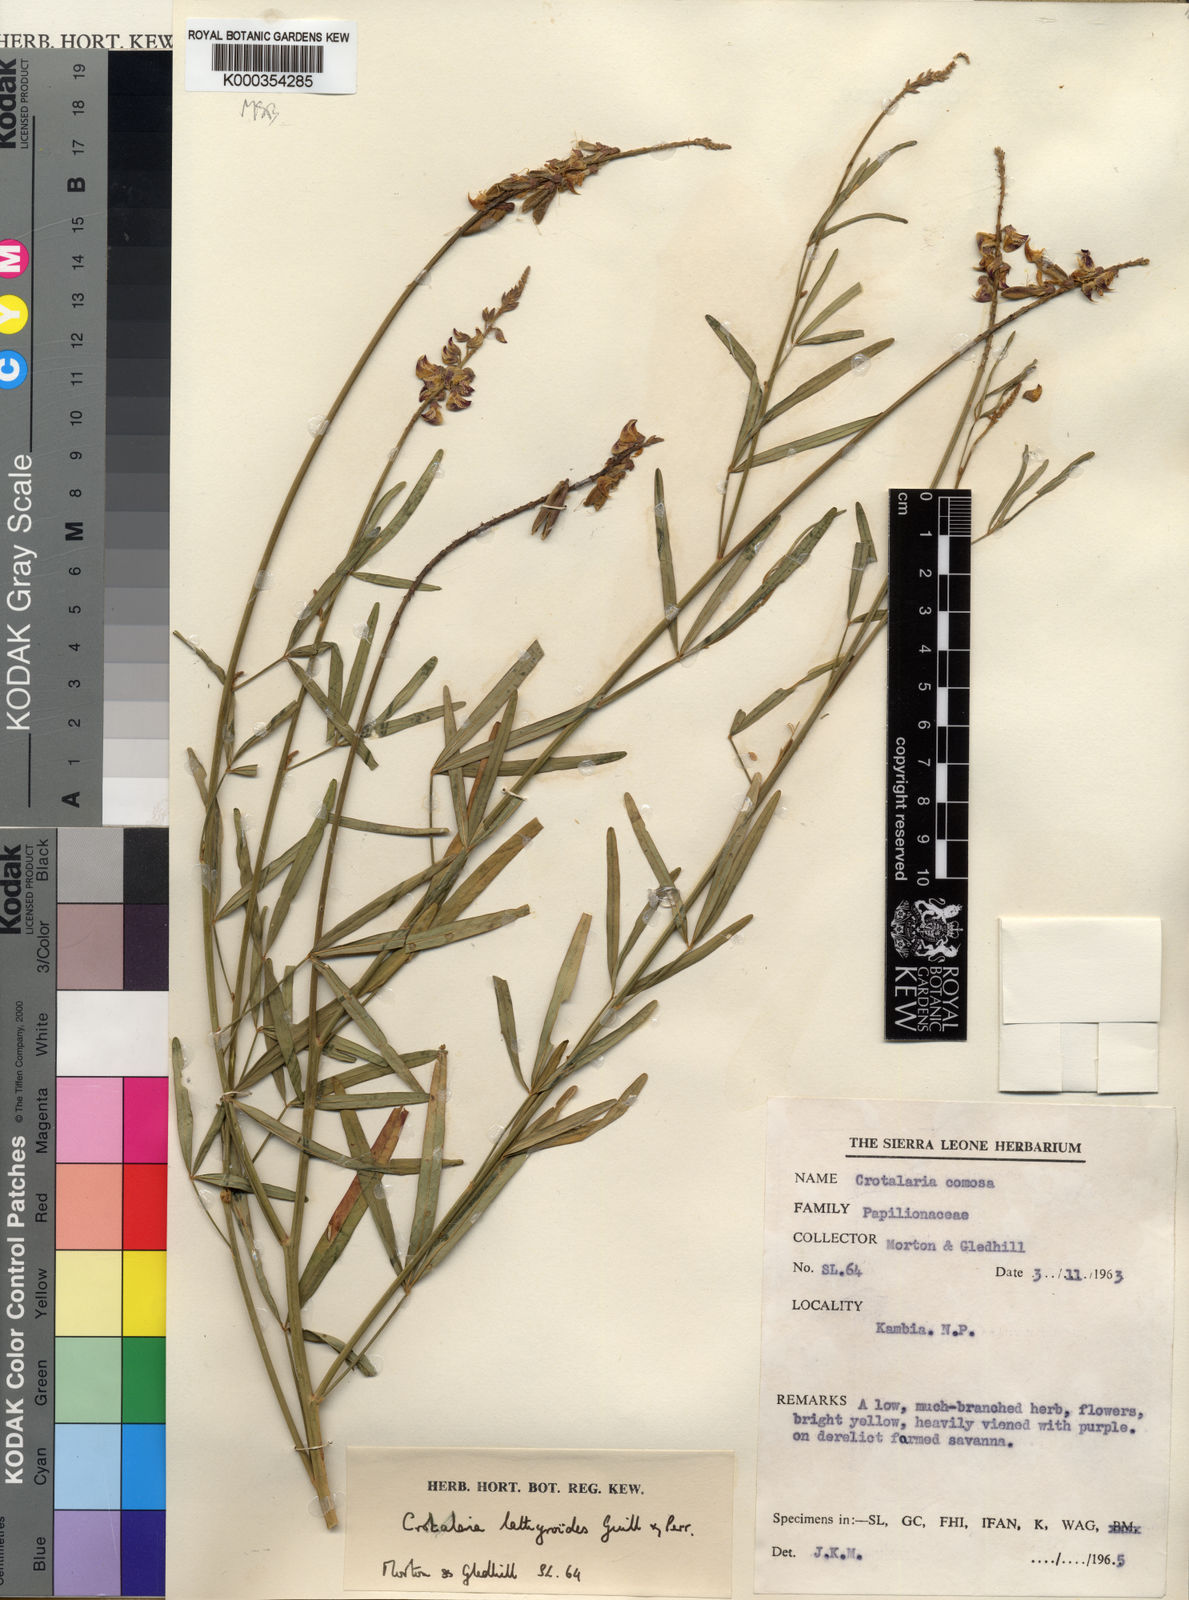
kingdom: Plantae
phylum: Tracheophyta
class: Magnoliopsida
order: Fabales
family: Fabaceae
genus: Crotalaria
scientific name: Crotalaria lathyroides
